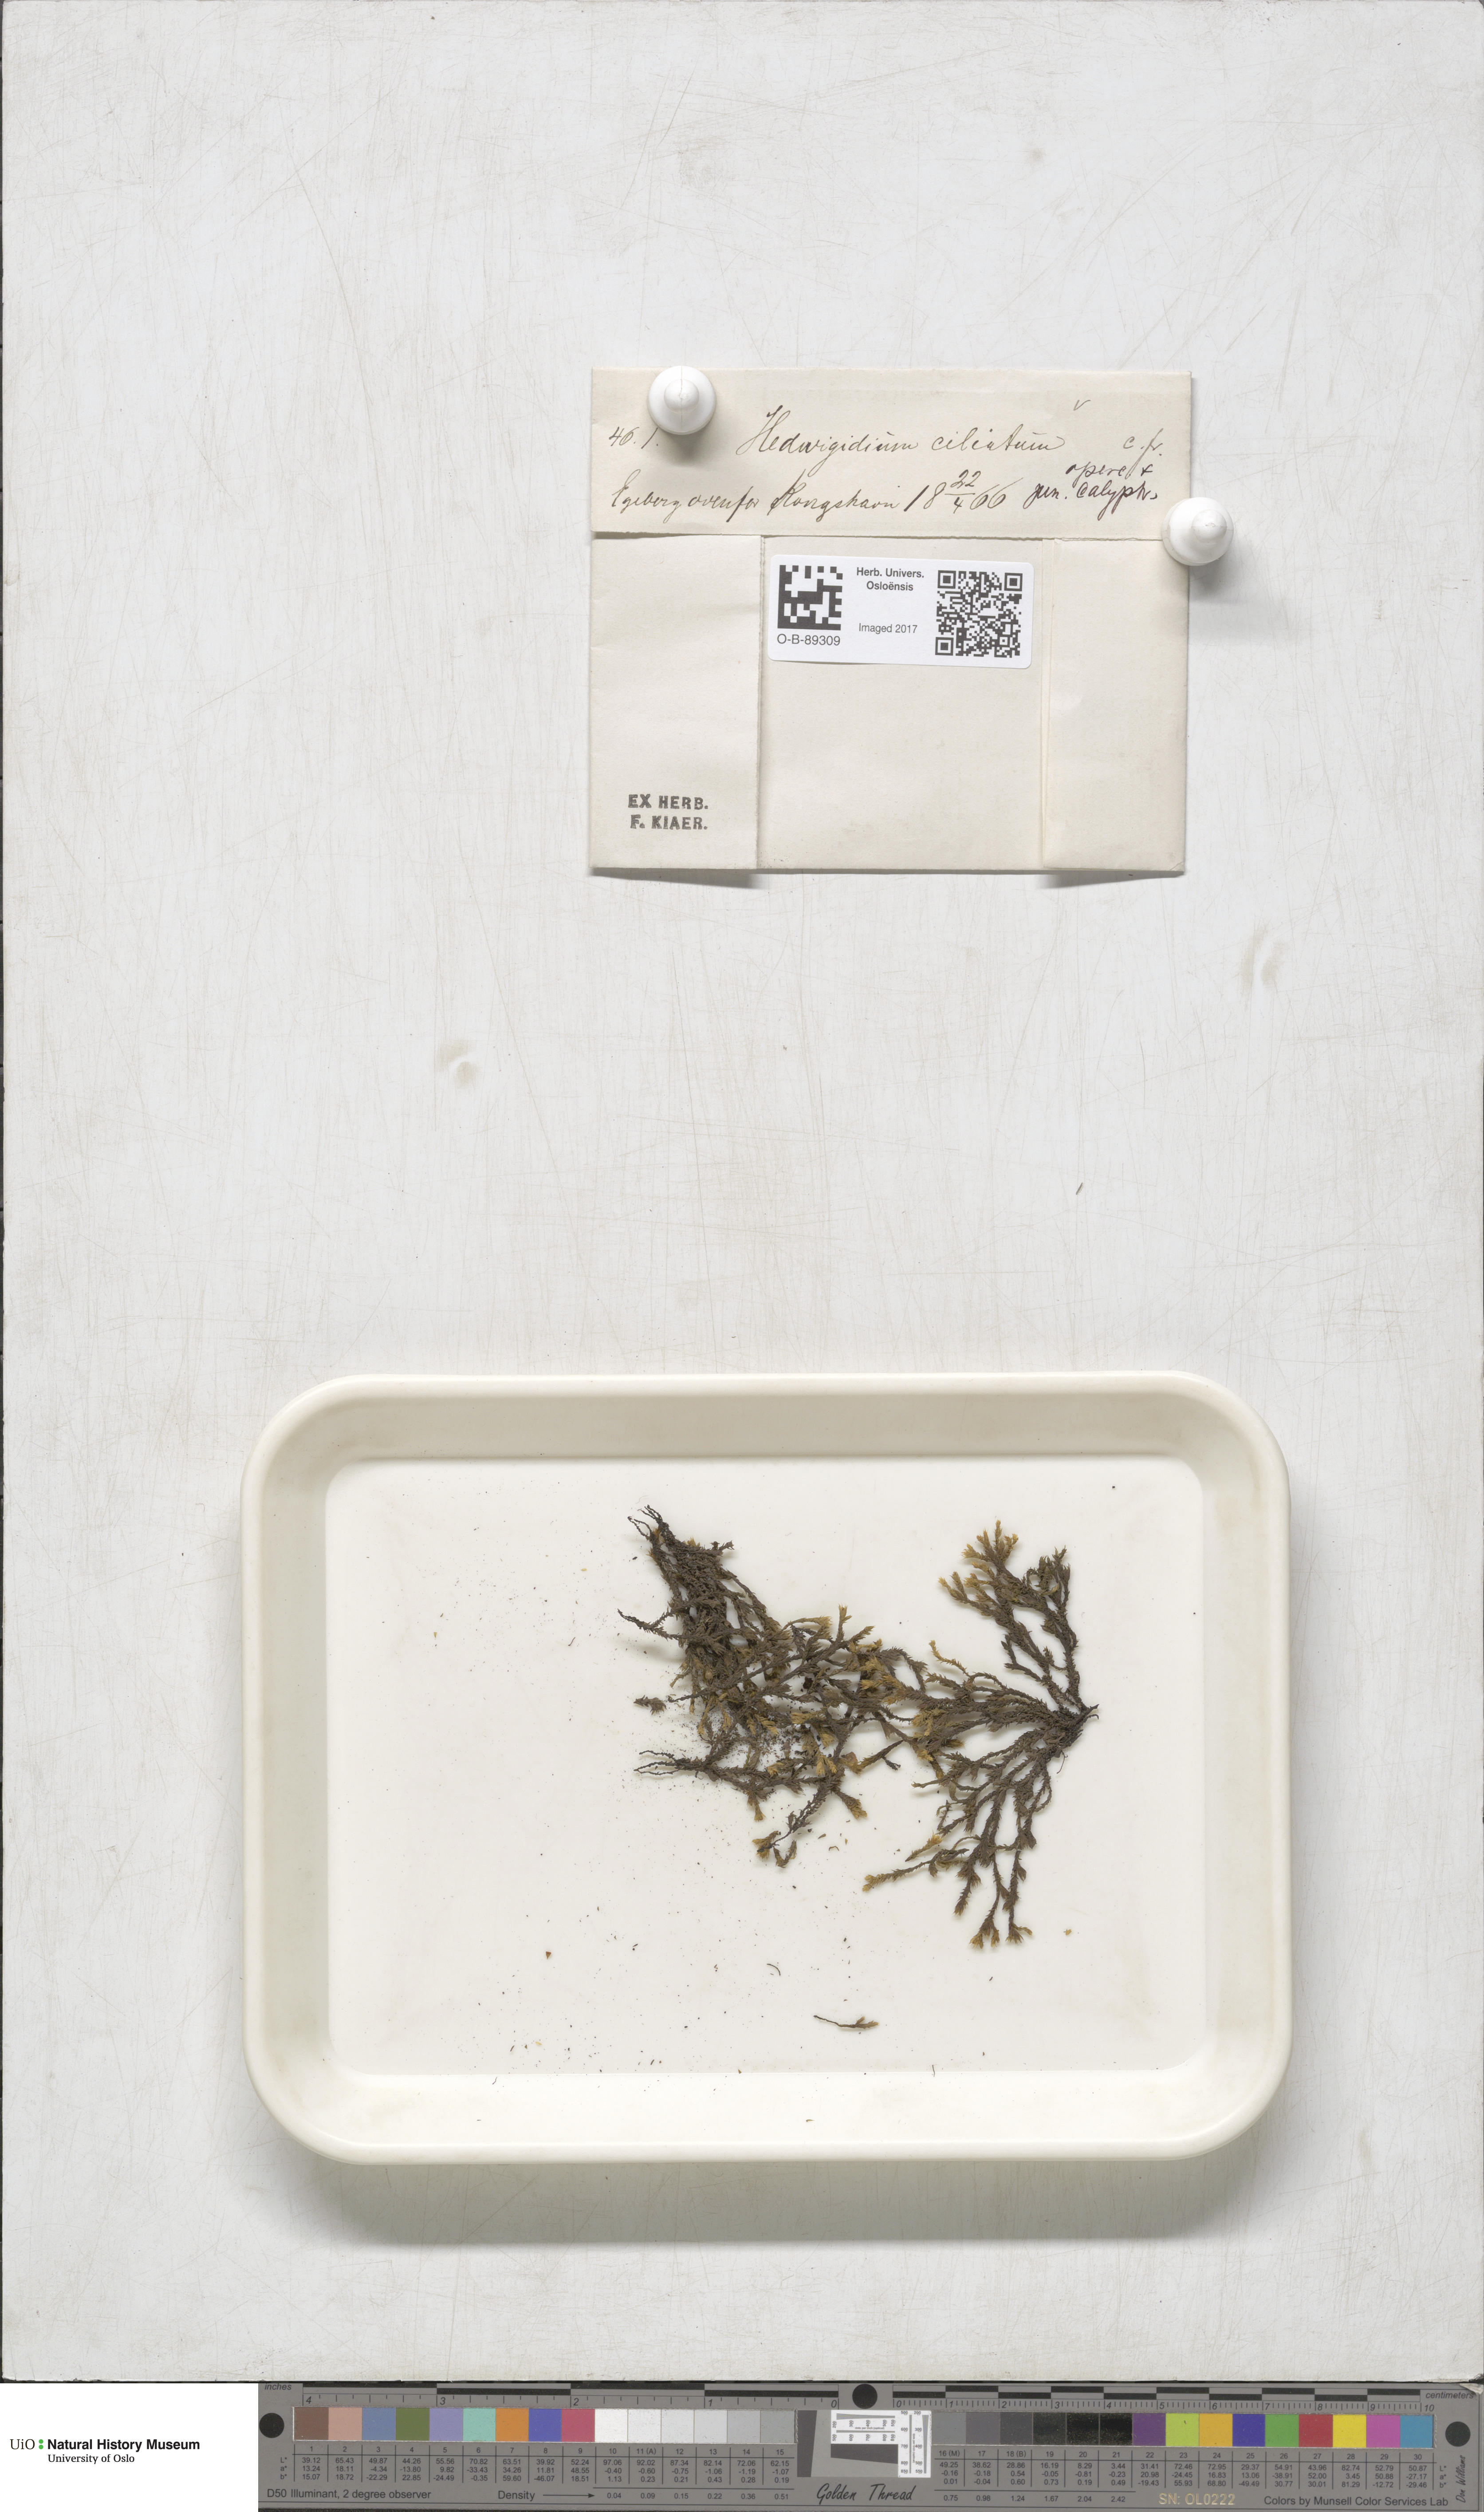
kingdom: Plantae
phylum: Bryophyta
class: Bryopsida
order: Hedwigiales
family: Hedwigiaceae
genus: Hedwigia
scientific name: Hedwigia ciliata
